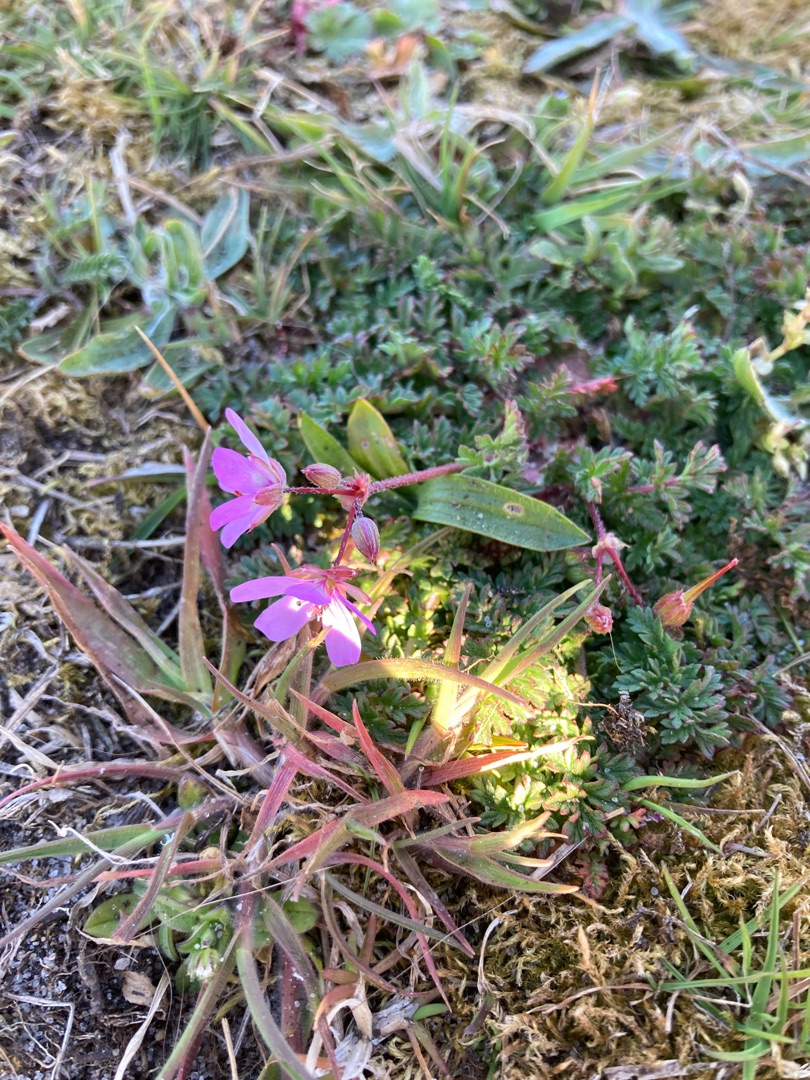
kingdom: Plantae
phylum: Tracheophyta
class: Magnoliopsida
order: Geraniales
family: Geraniaceae
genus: Erodium
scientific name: Erodium cicutarium
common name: Hejrenæb
